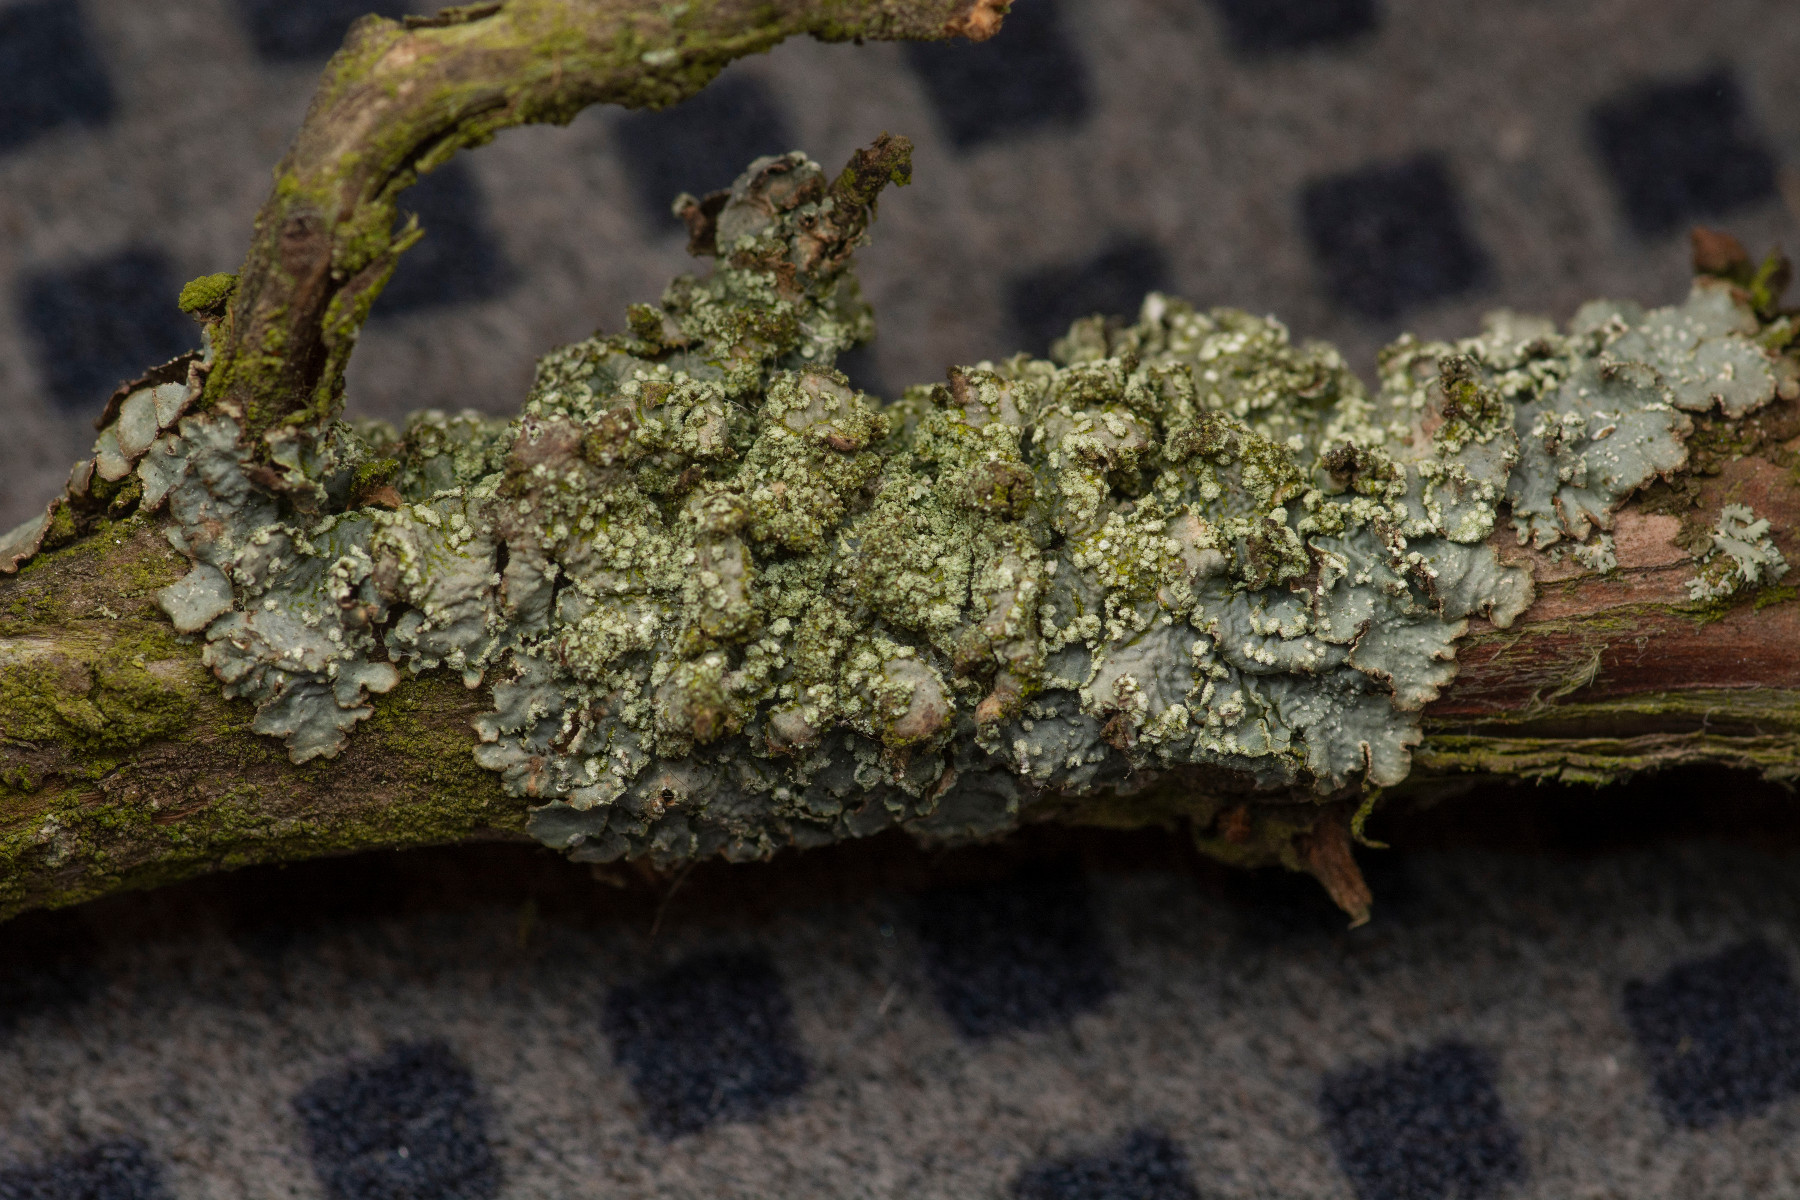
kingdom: Fungi
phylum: Ascomycota
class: Lecanoromycetes
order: Lecanorales
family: Parmeliaceae
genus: Punctelia
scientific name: Punctelia jeckeri
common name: randstøvet skållav
